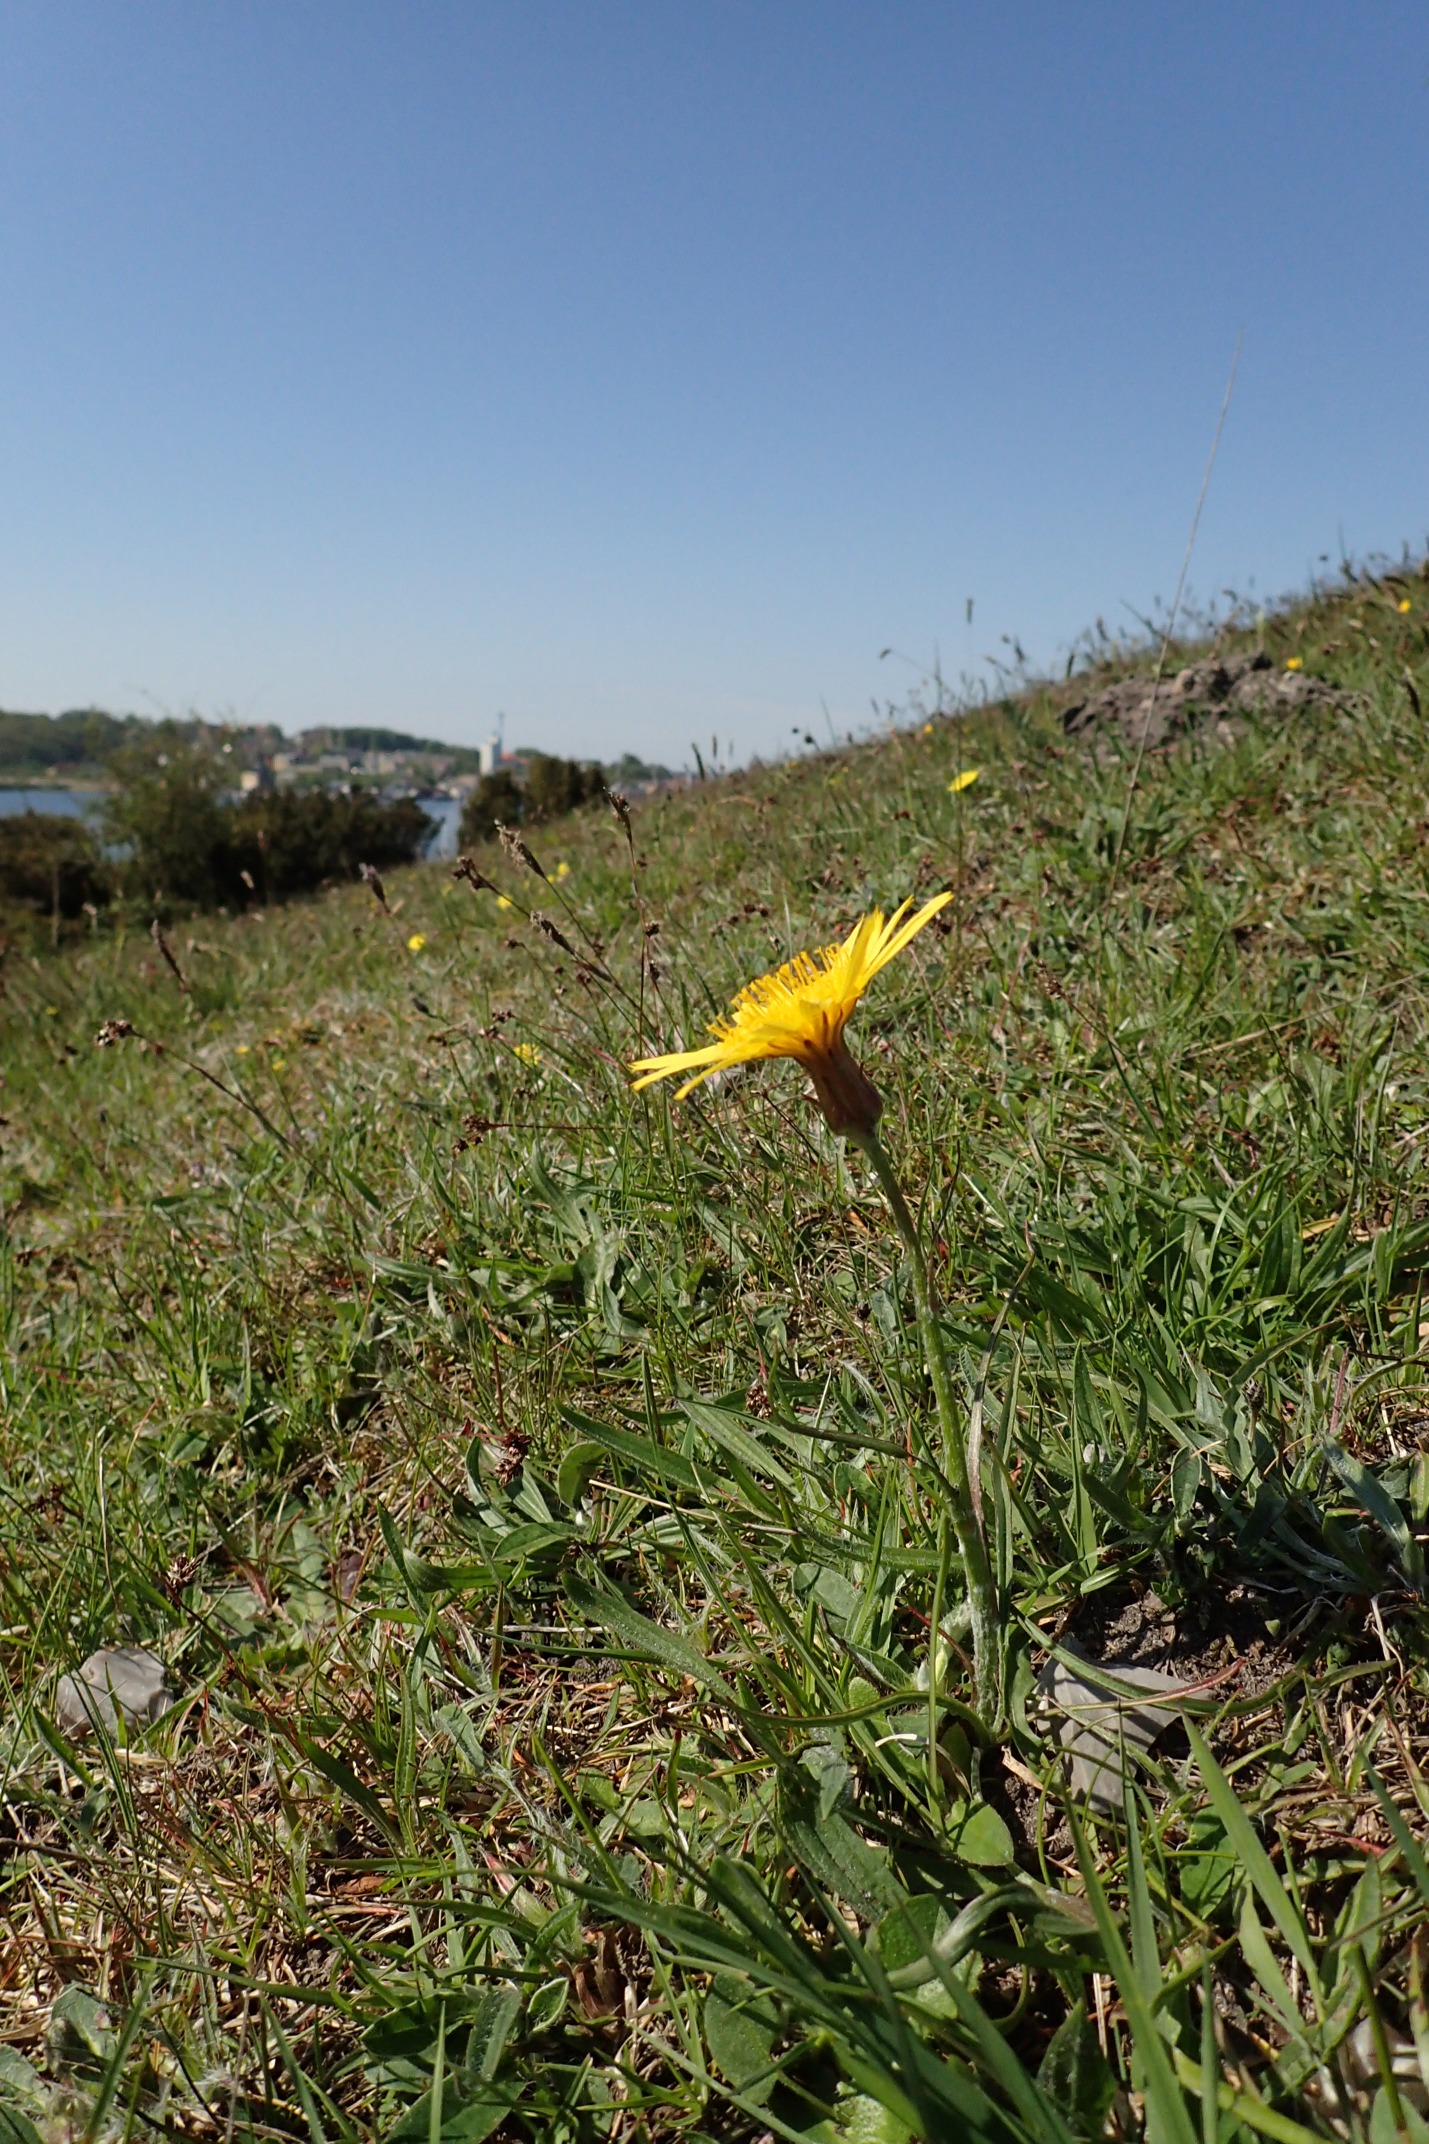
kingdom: Plantae
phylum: Tracheophyta
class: Magnoliopsida
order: Asterales
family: Asteraceae
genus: Scorzonera
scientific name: Scorzonera humilis
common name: Lav skorsoner
